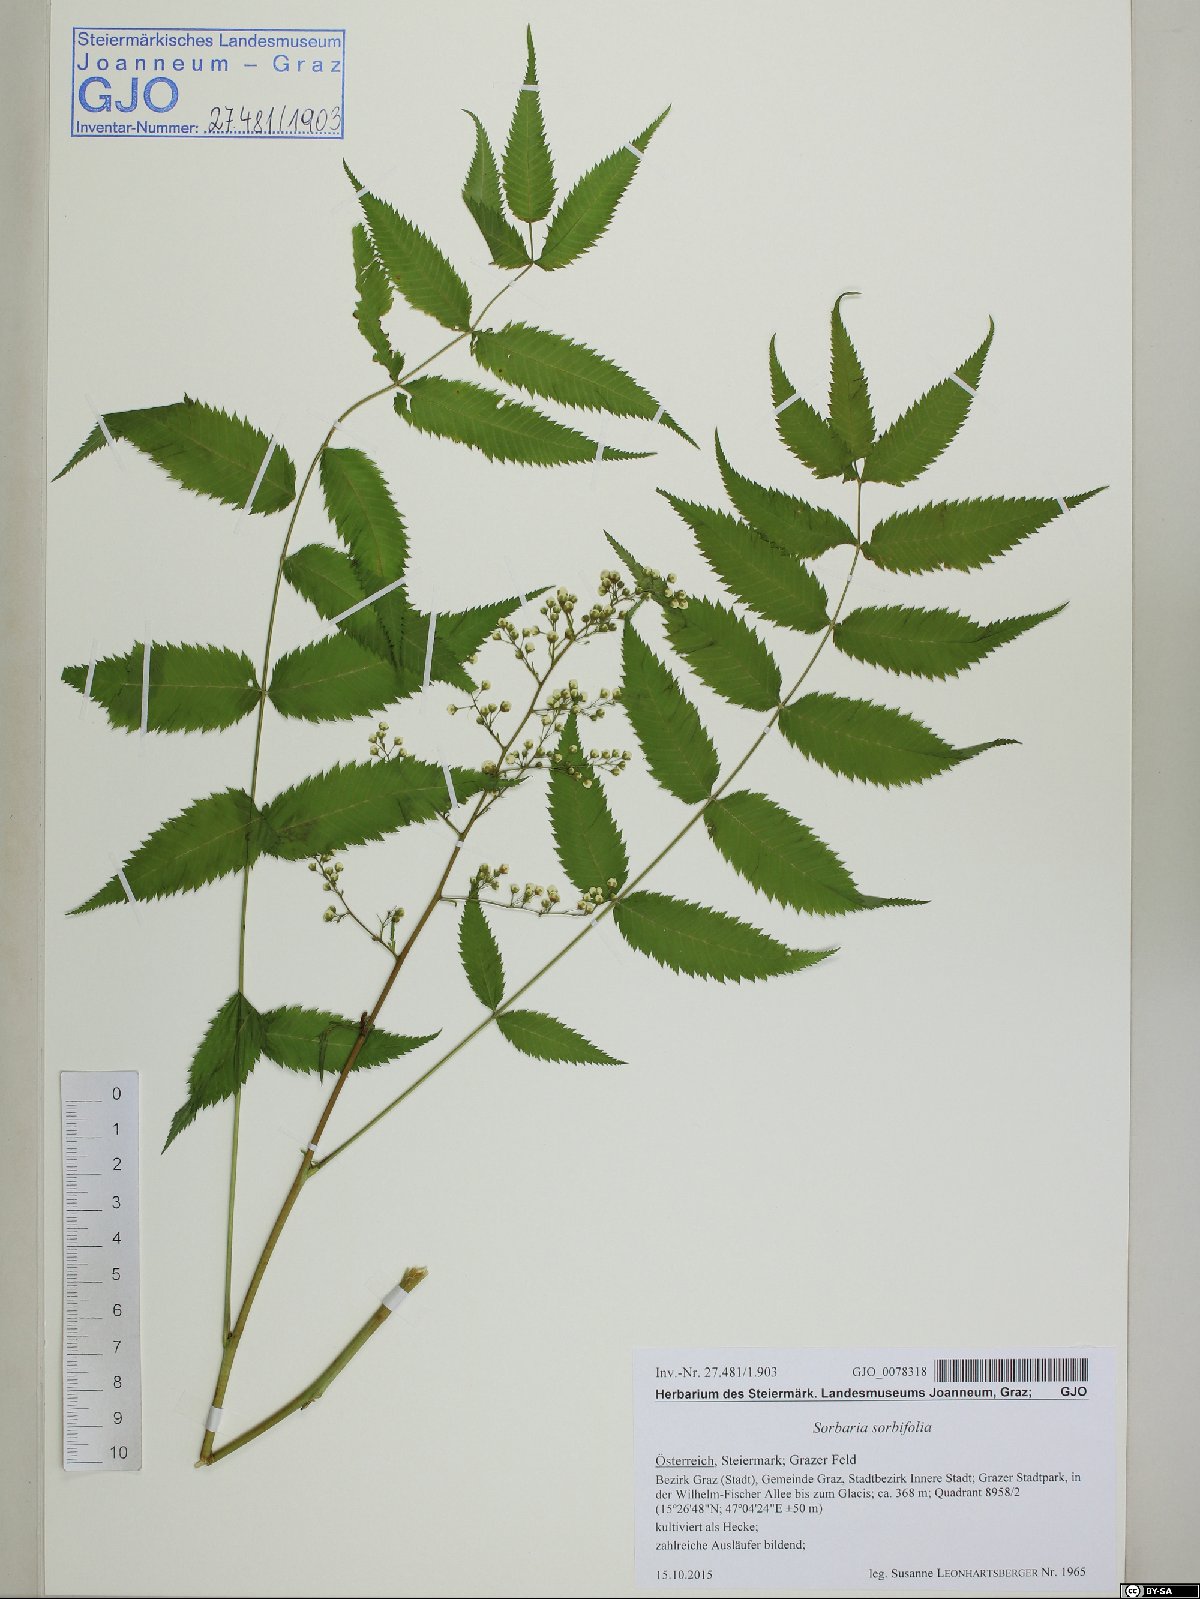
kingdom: Plantae
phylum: Tracheophyta
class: Magnoliopsida
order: Rosales
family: Rosaceae
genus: Sorbaria
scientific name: Sorbaria sorbifolia
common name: False spiraea
